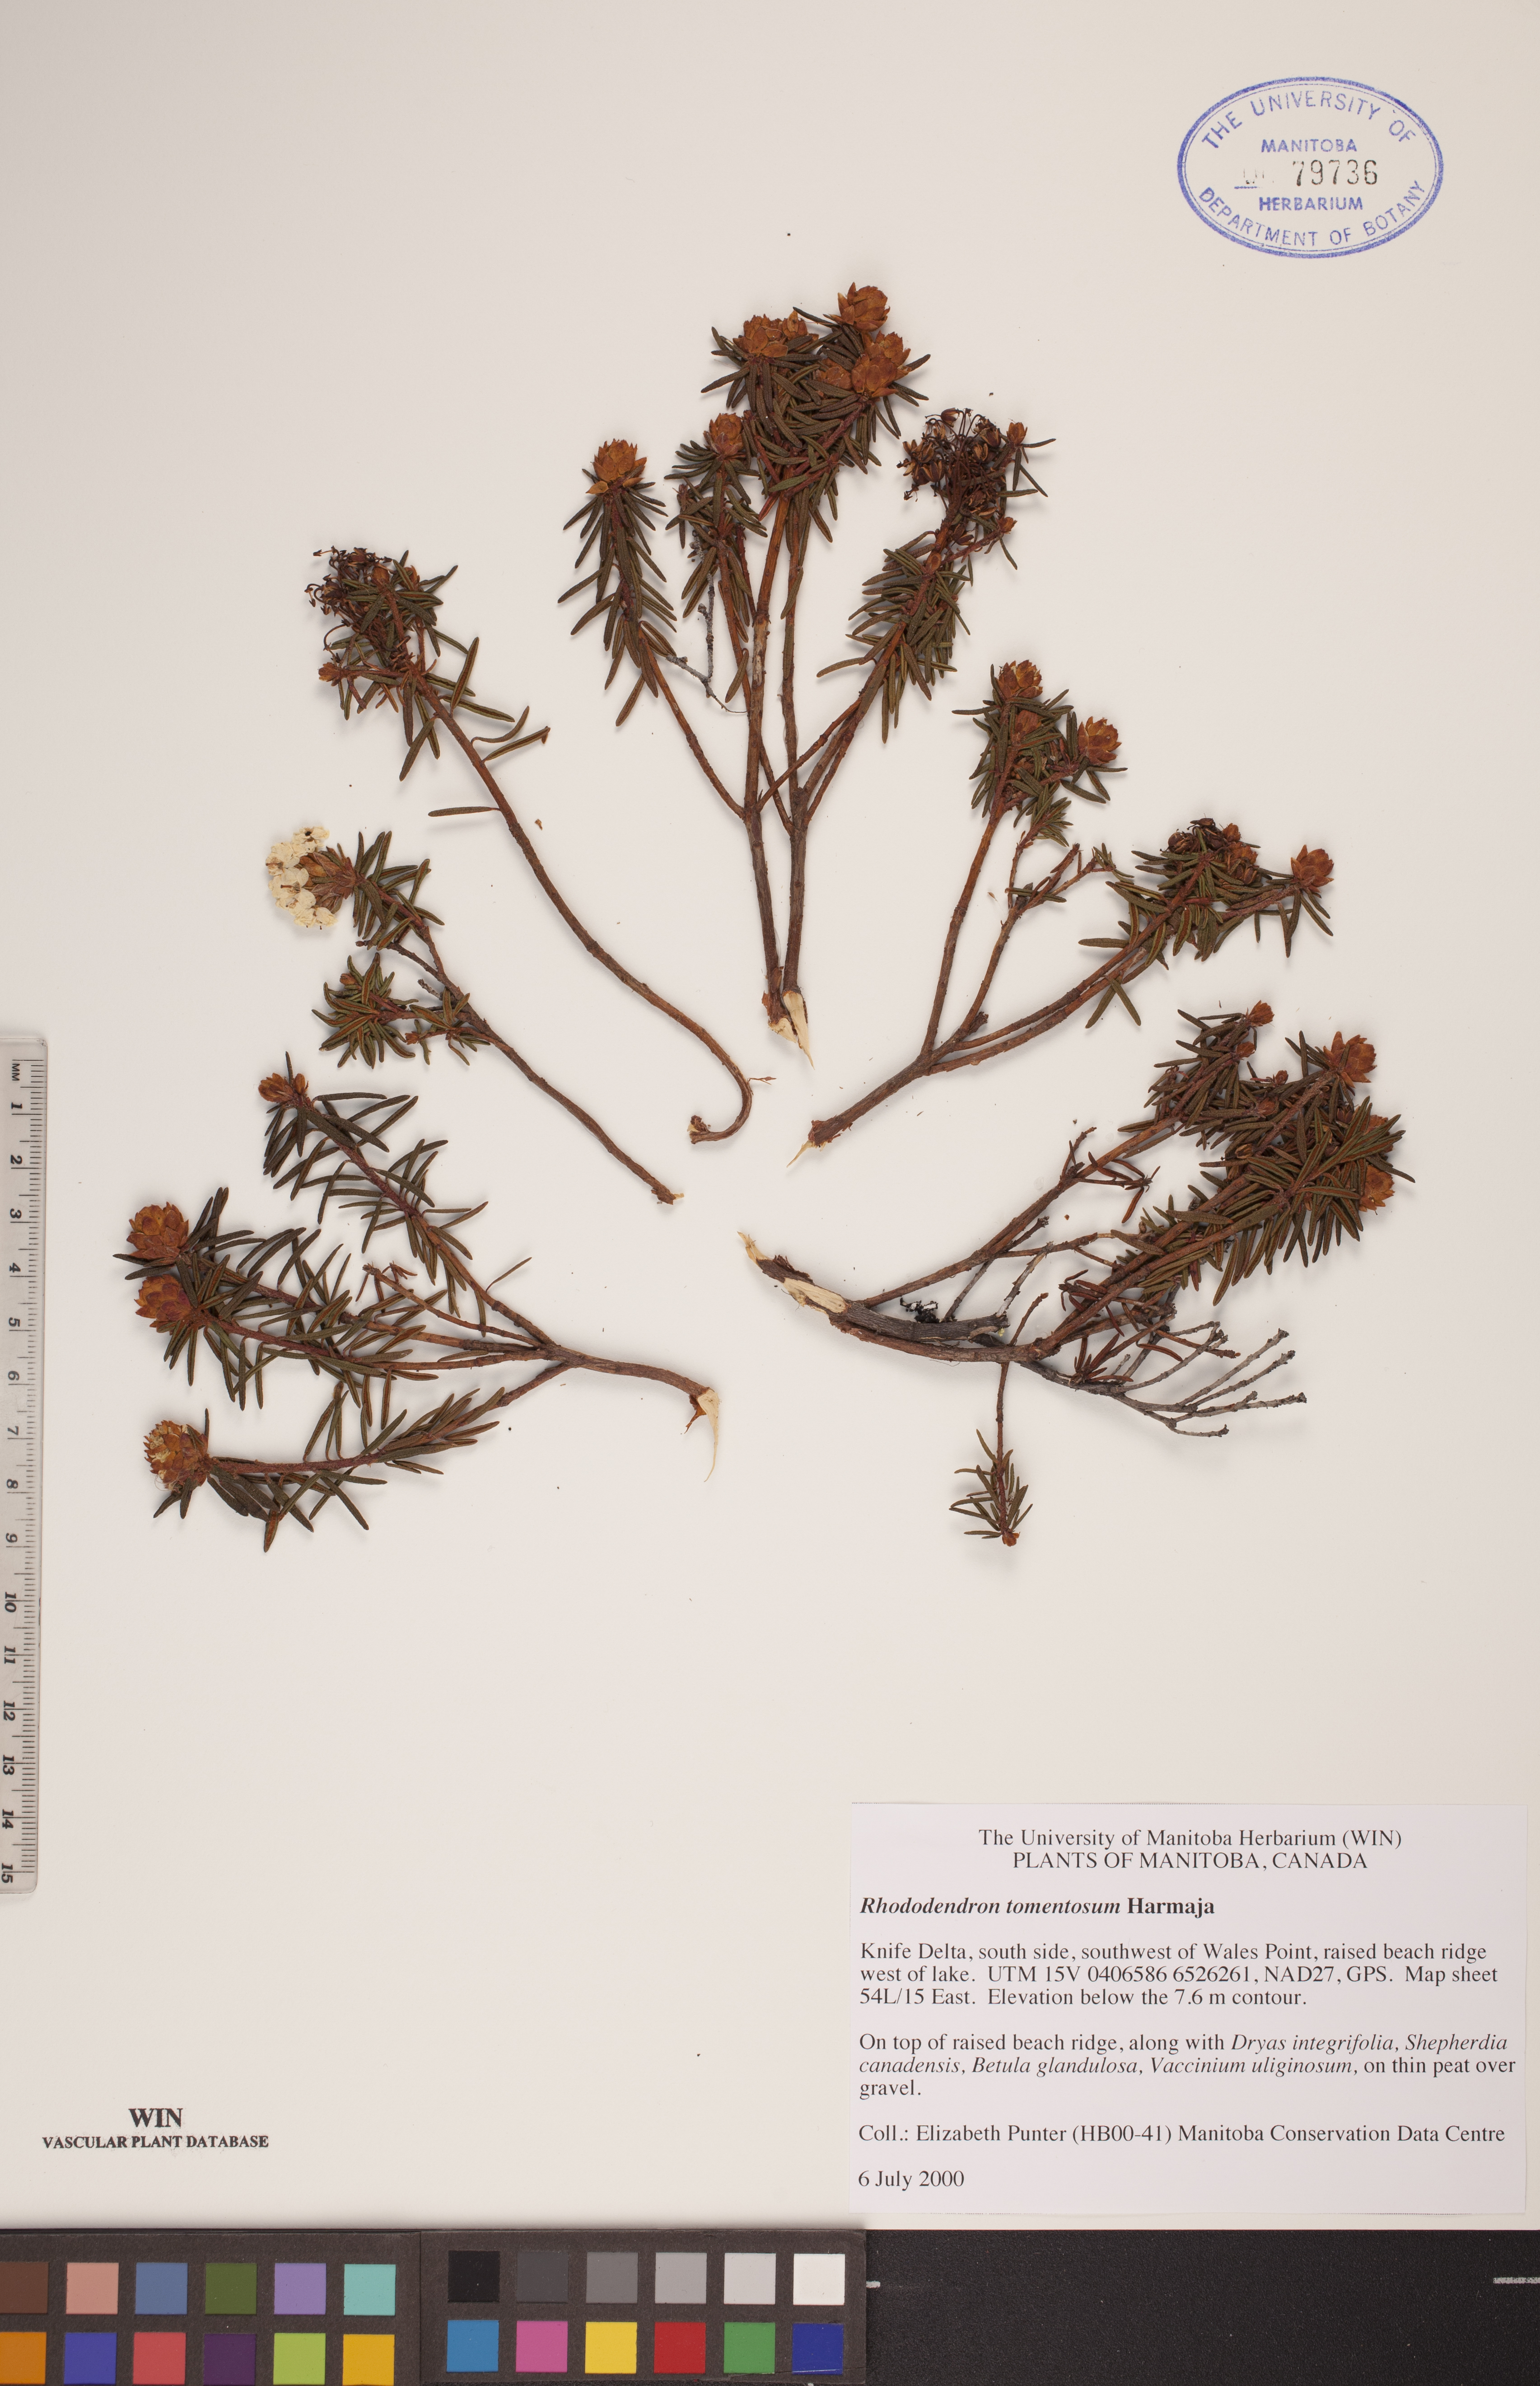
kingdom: Plantae
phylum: Tracheophyta
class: Magnoliopsida
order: Ericales
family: Ericaceae
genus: Rhododendron
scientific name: Rhododendron tomentosum
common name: Marsh labrador tea
